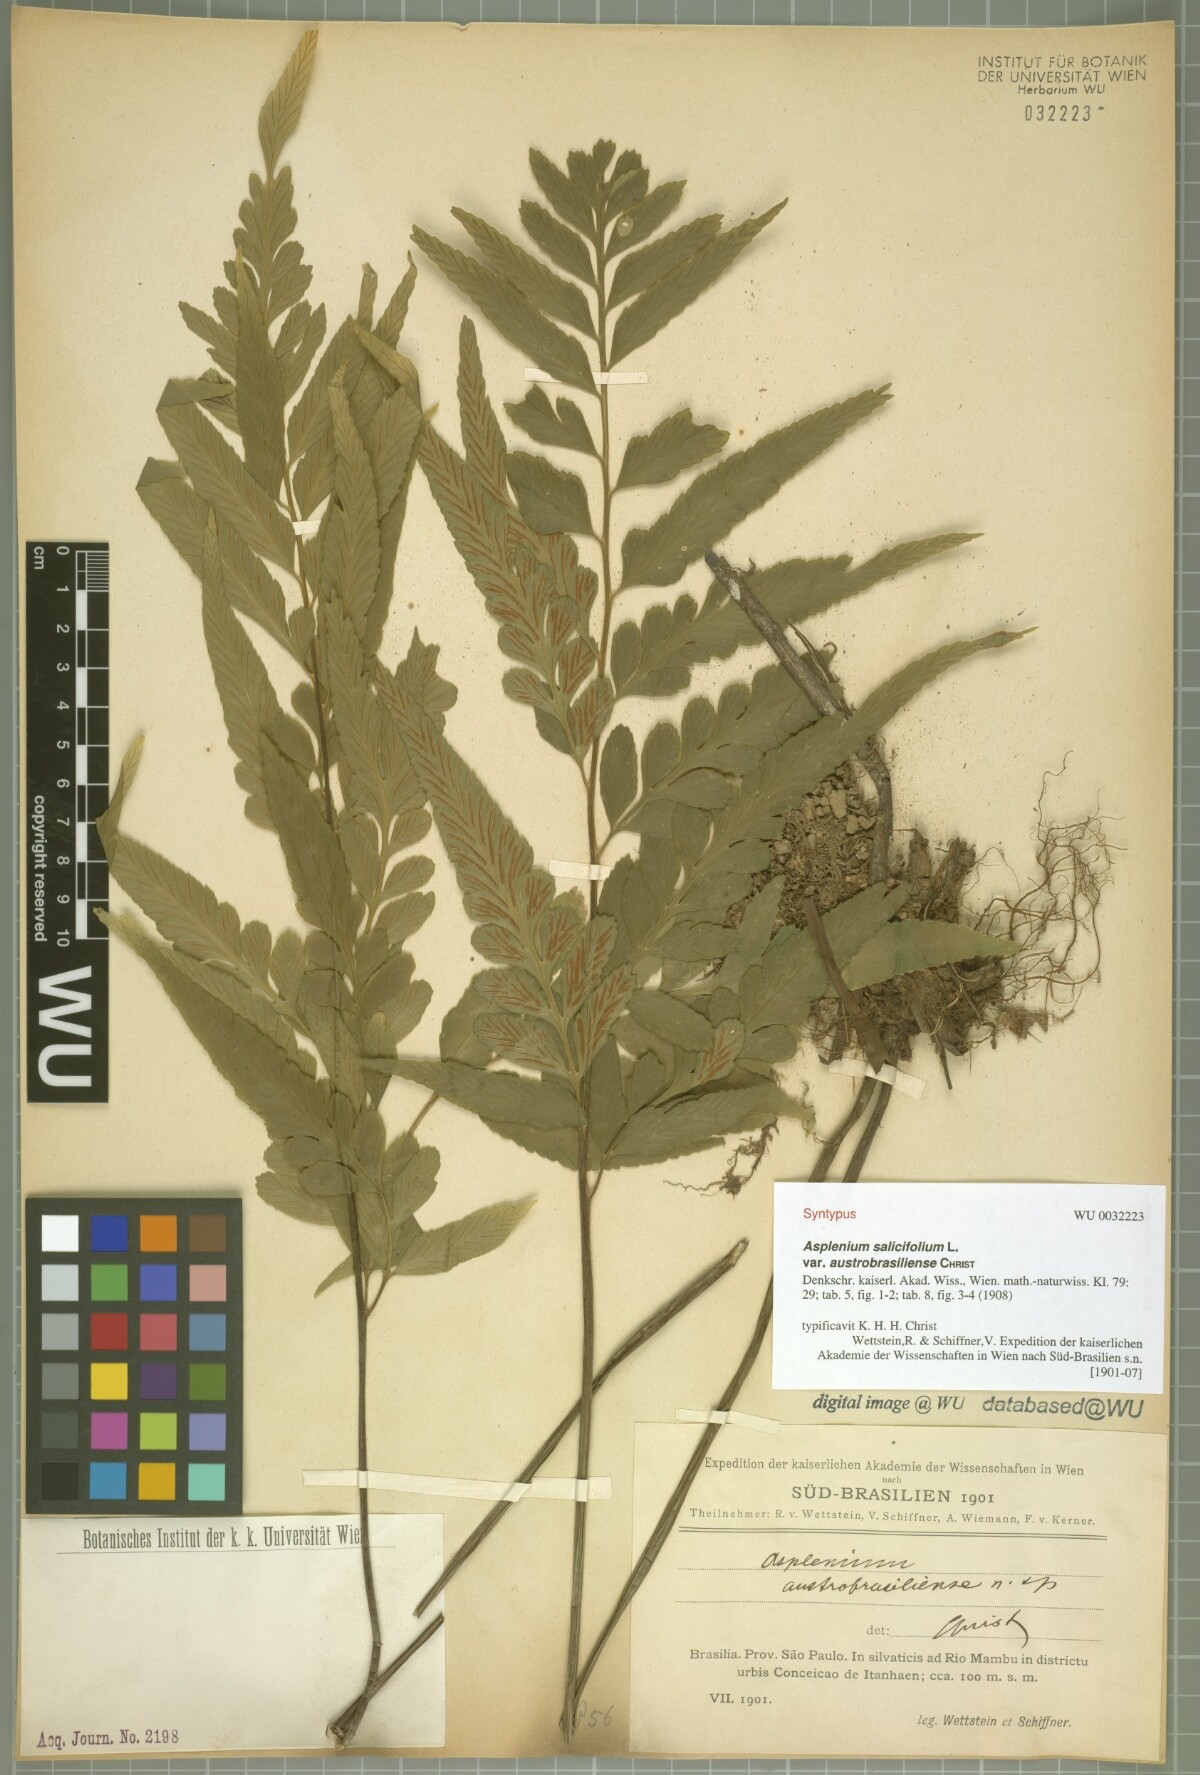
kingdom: Plantae
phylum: Tracheophyta
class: Polypodiopsida
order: Polypodiales
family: Aspleniaceae
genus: Asplenium
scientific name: Asplenium austrobrasiliense
